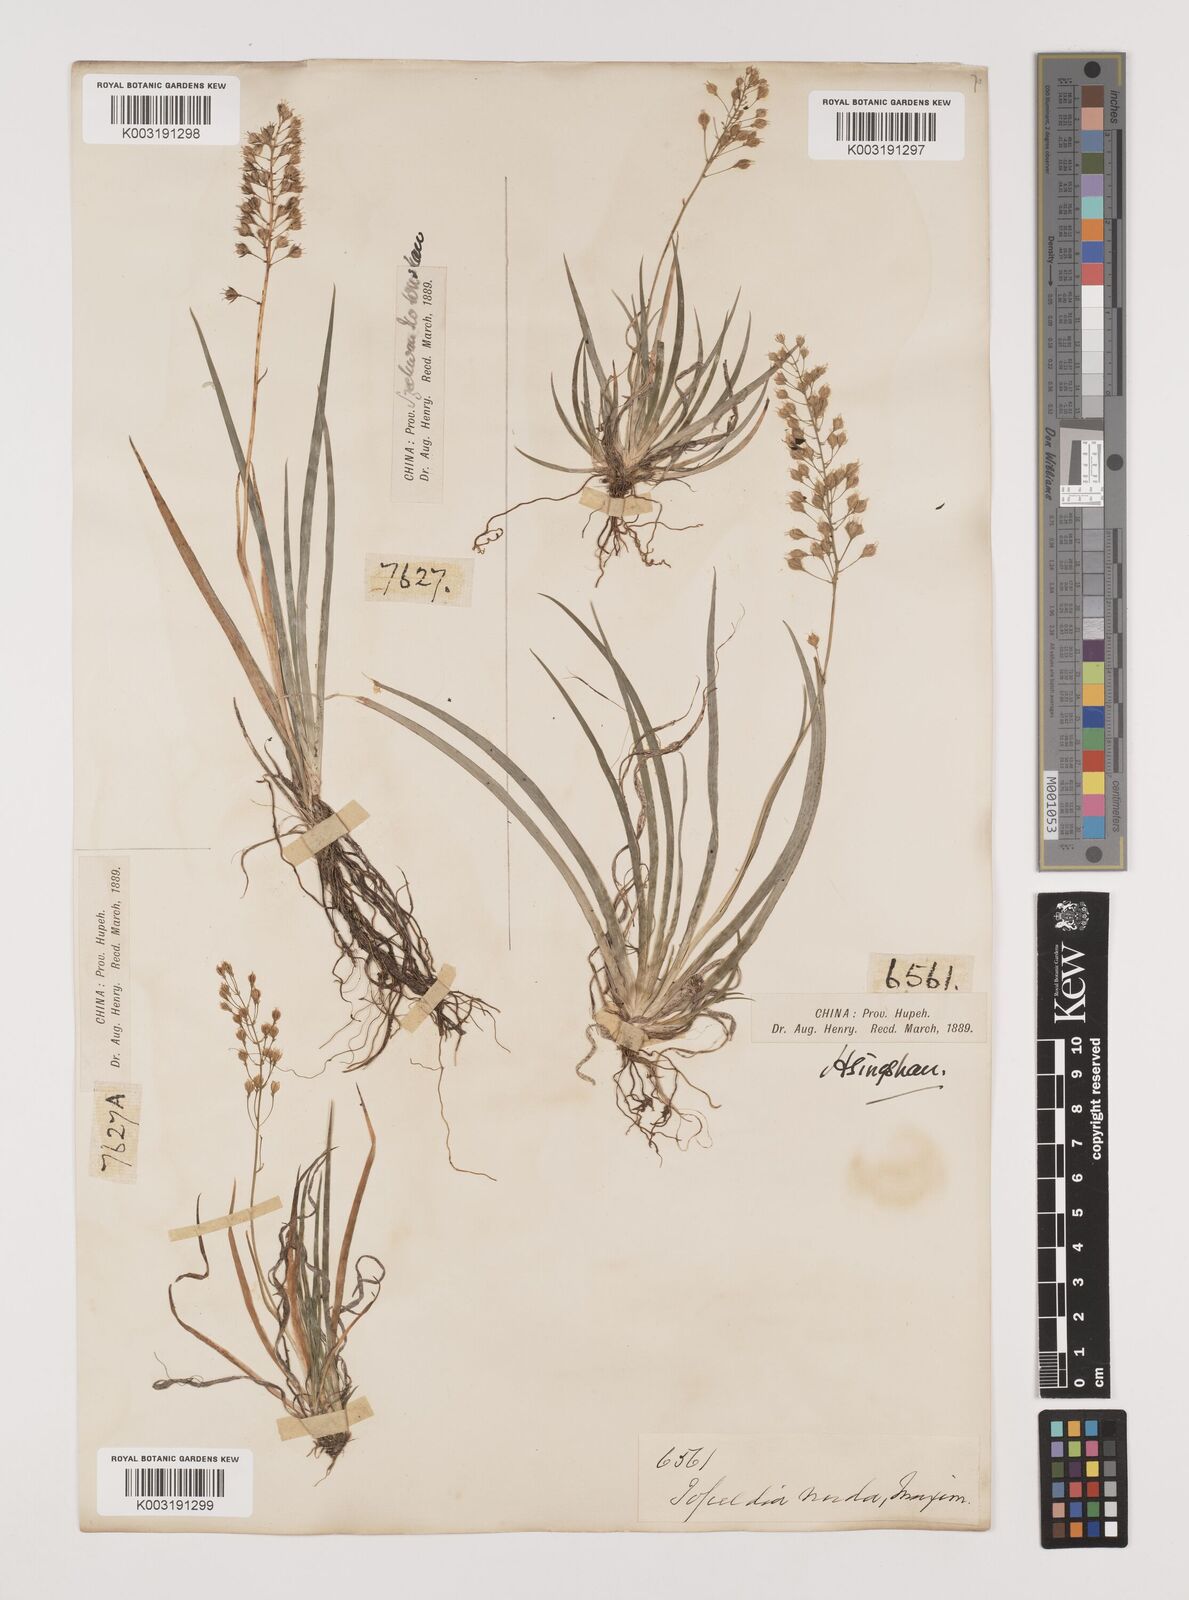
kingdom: Plantae
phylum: Tracheophyta
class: Liliopsida
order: Alismatales
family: Tofieldiaceae
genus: Tofieldia
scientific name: Tofieldia thibetica
